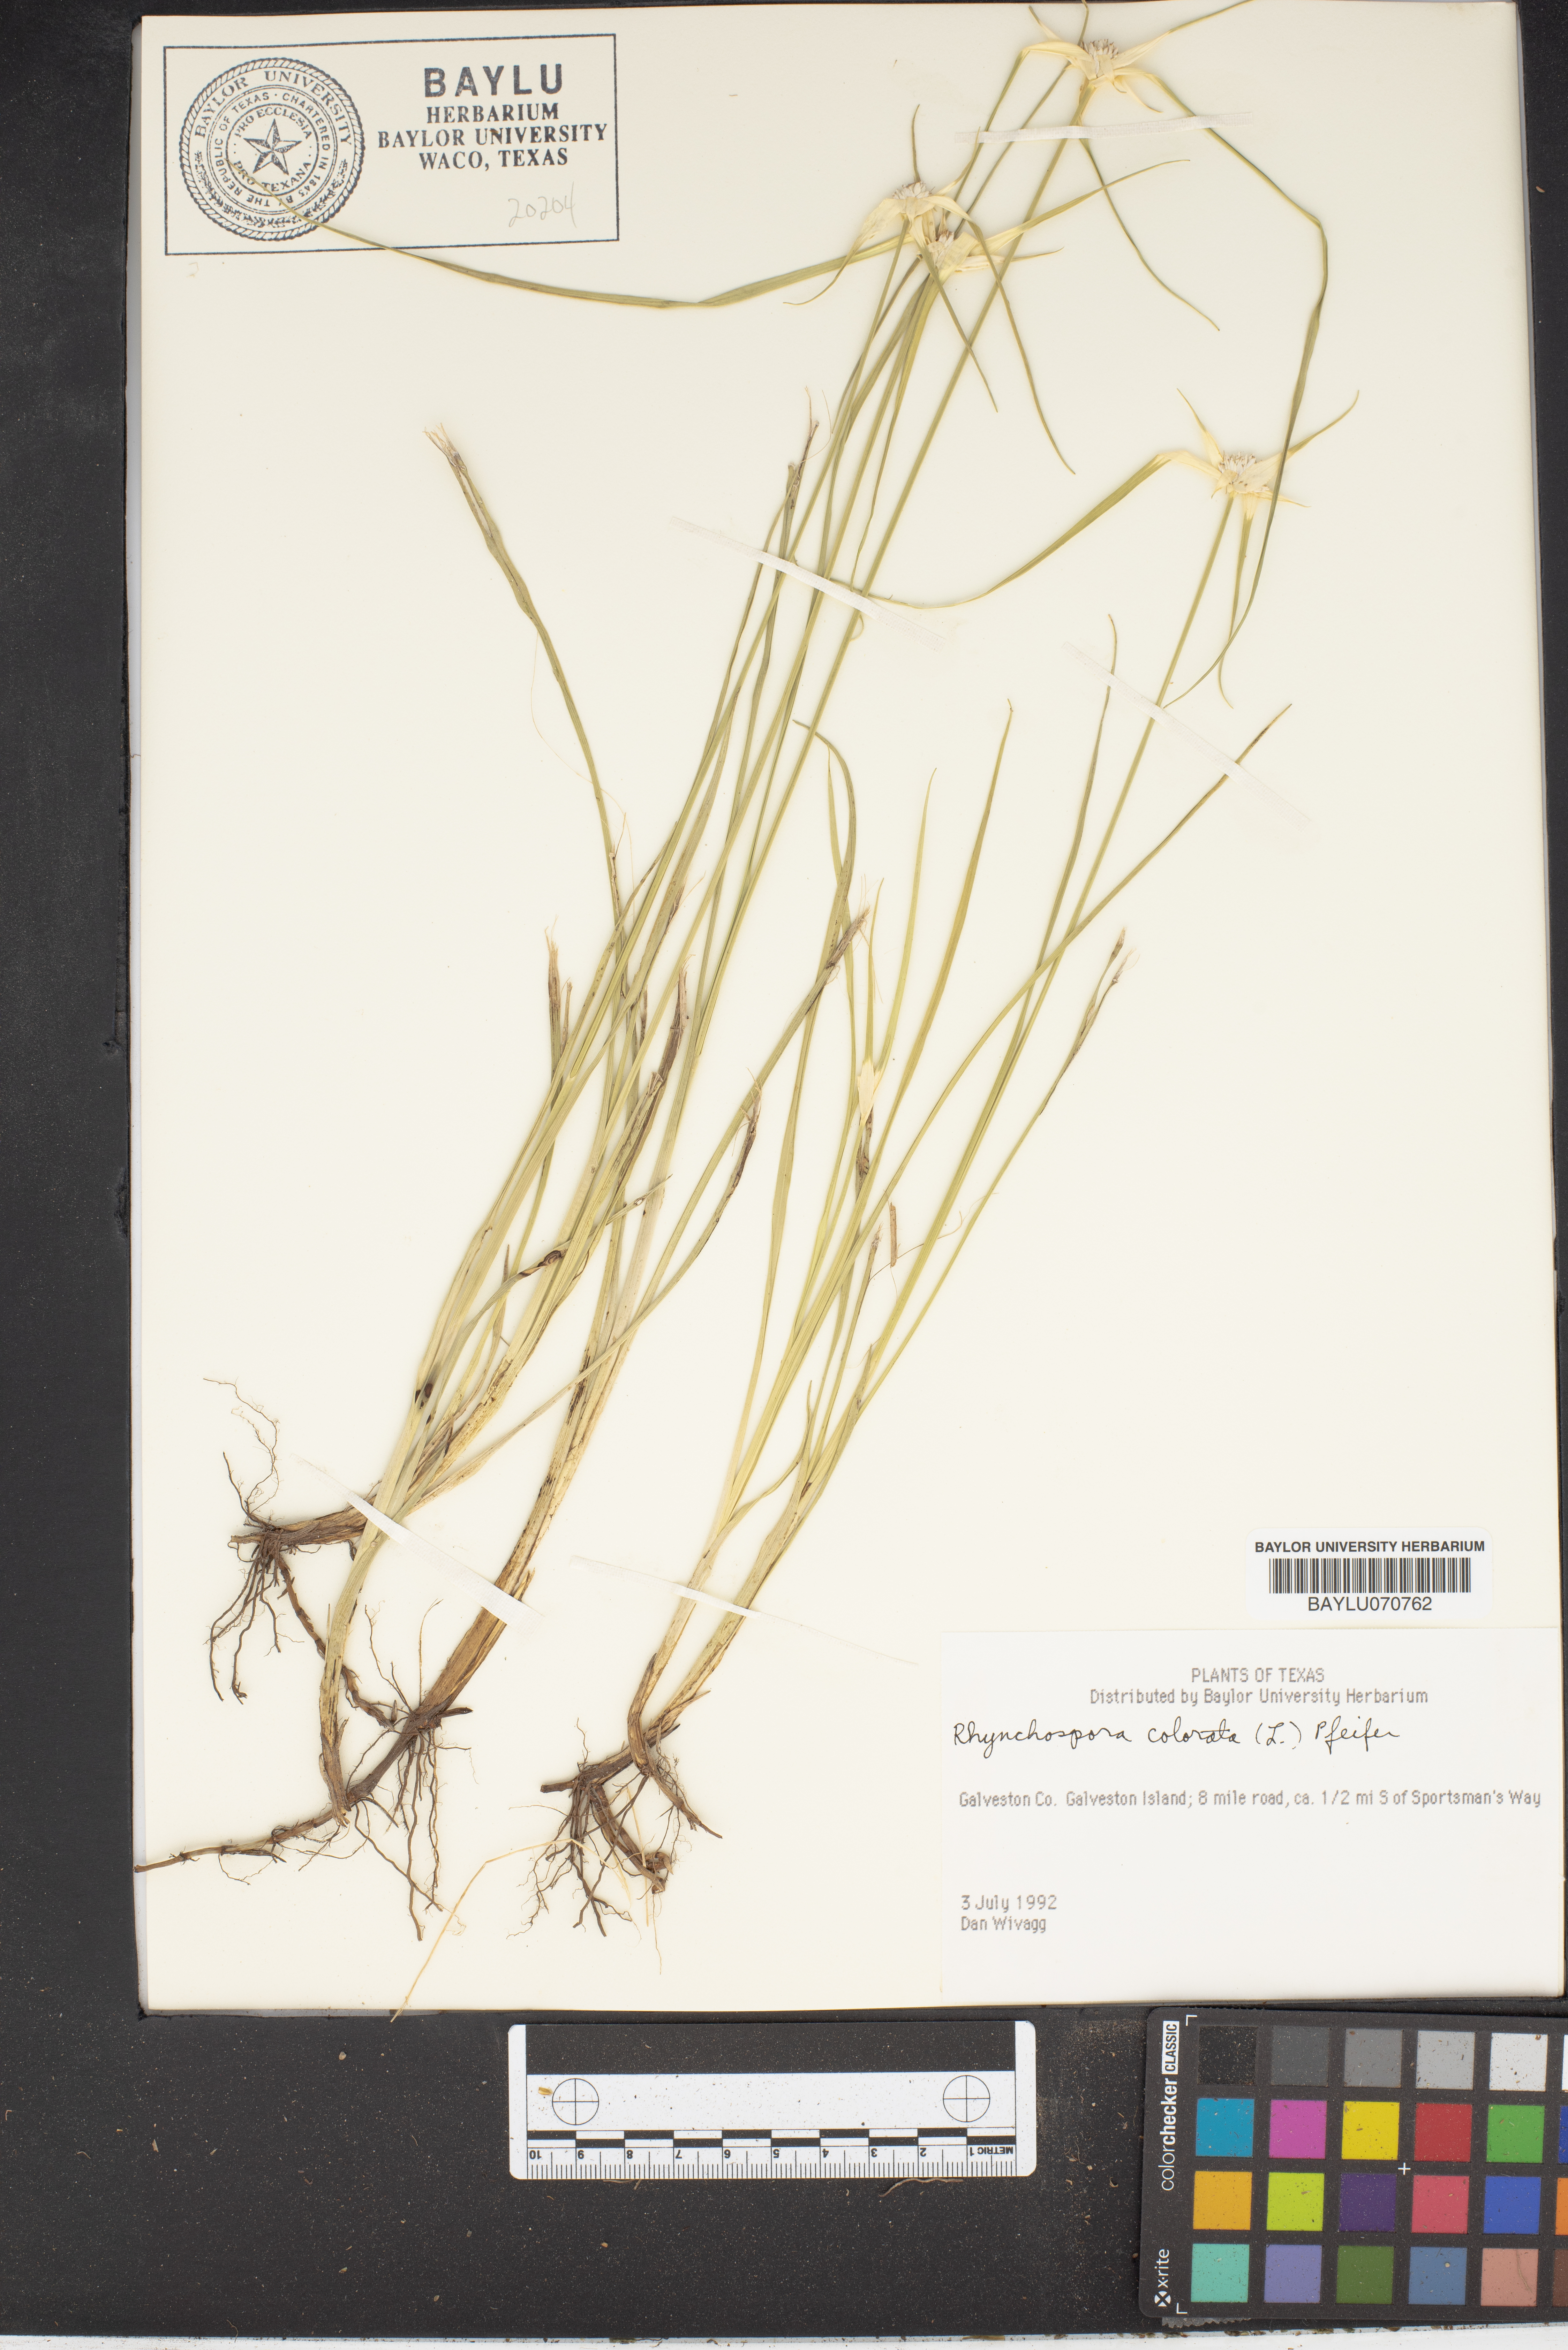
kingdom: Plantae
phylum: Tracheophyta
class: Liliopsida
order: Poales
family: Cyperaceae
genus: Rhynchospora
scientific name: Rhynchospora colorata
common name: Star sedge
